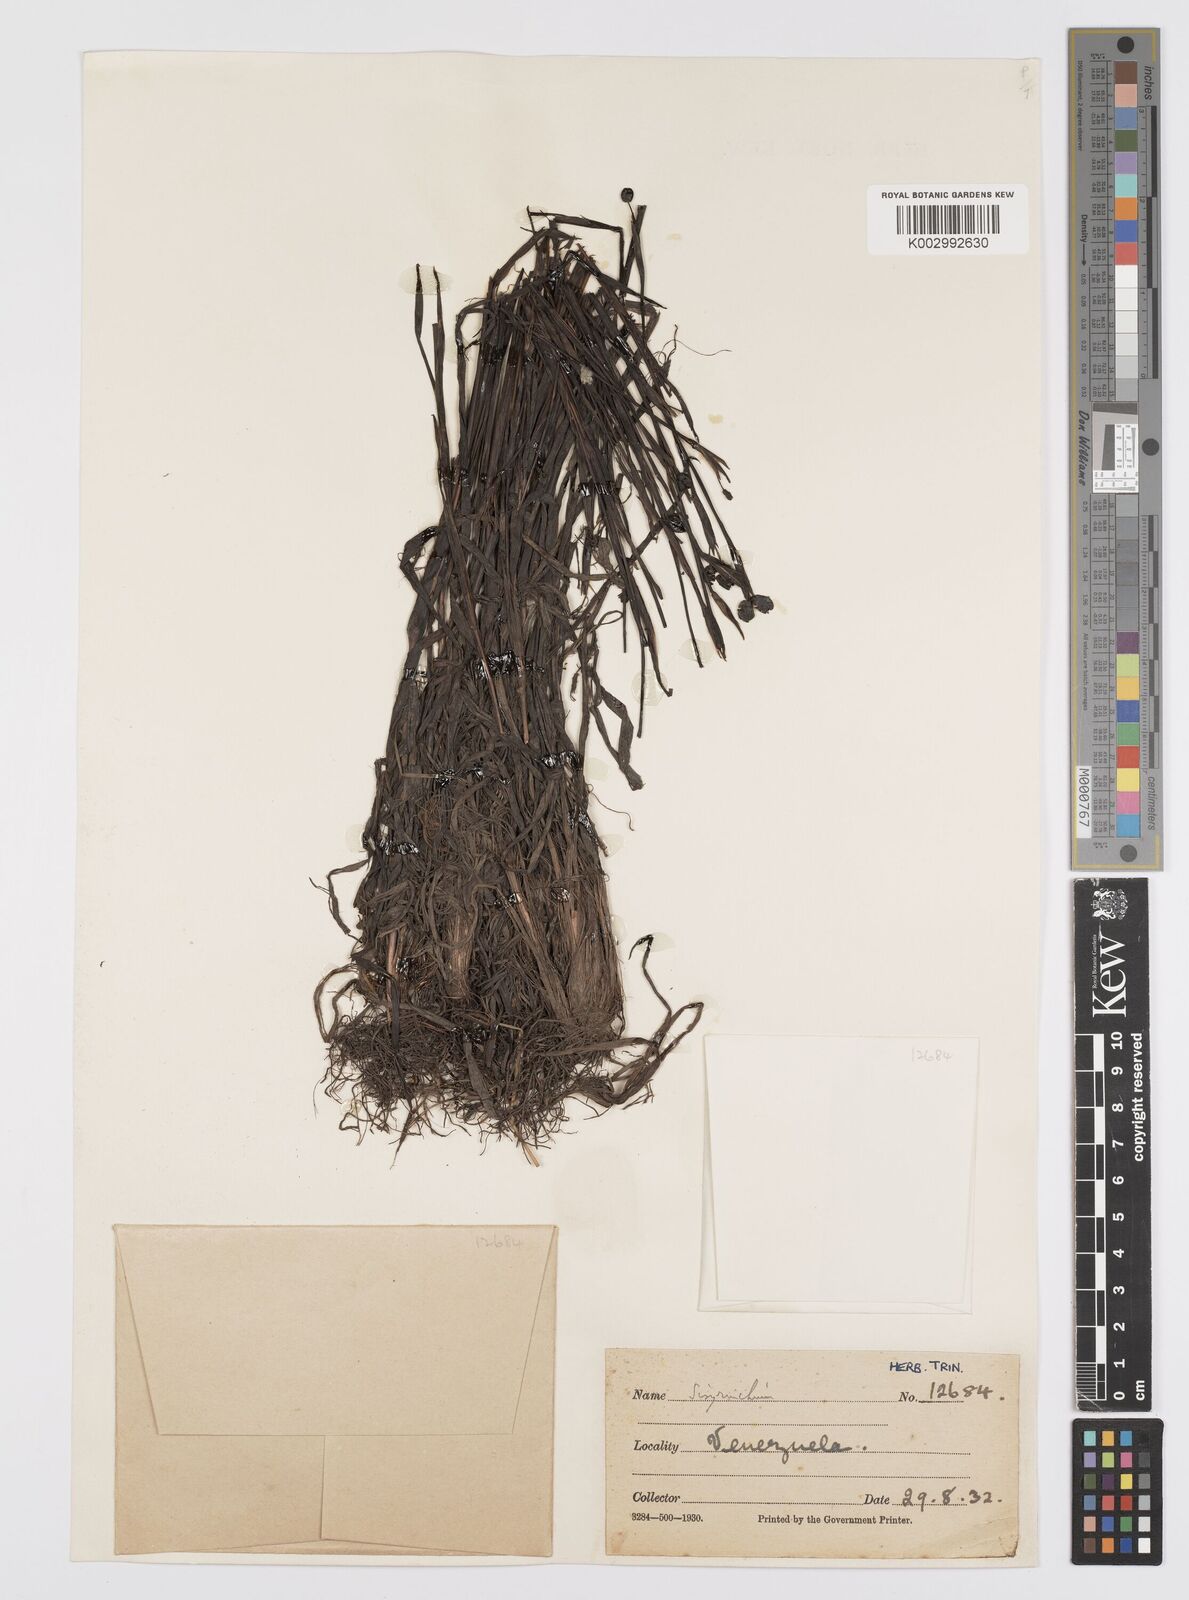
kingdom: Plantae
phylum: Tracheophyta
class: Liliopsida
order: Asparagales
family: Iridaceae
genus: Sisyrinchium
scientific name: Sisyrinchium
